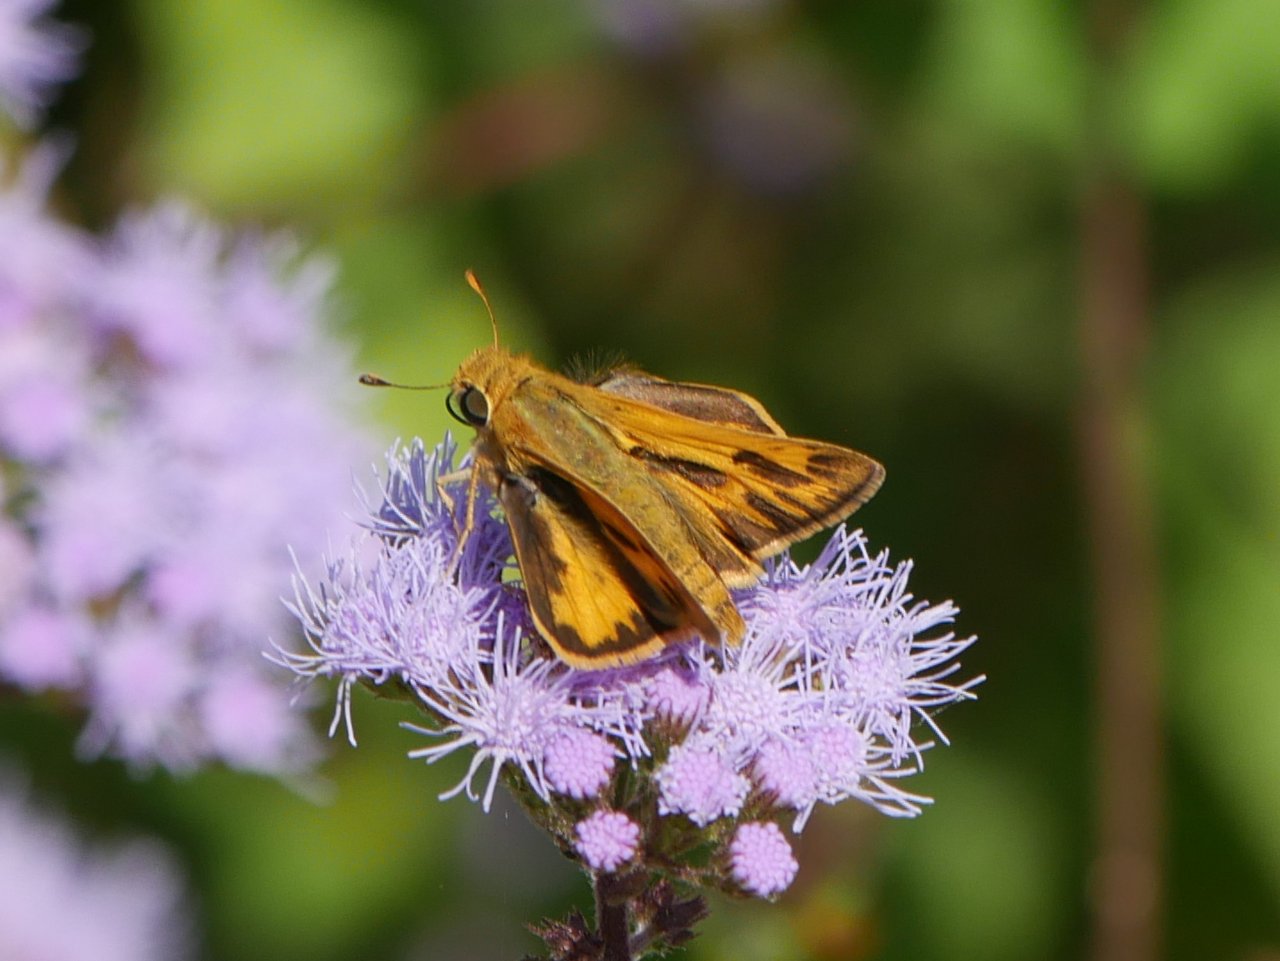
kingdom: Animalia
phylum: Arthropoda
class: Insecta
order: Lepidoptera
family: Hesperiidae
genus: Hylephila
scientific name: Hylephila phyleus
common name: Fiery Skipper
